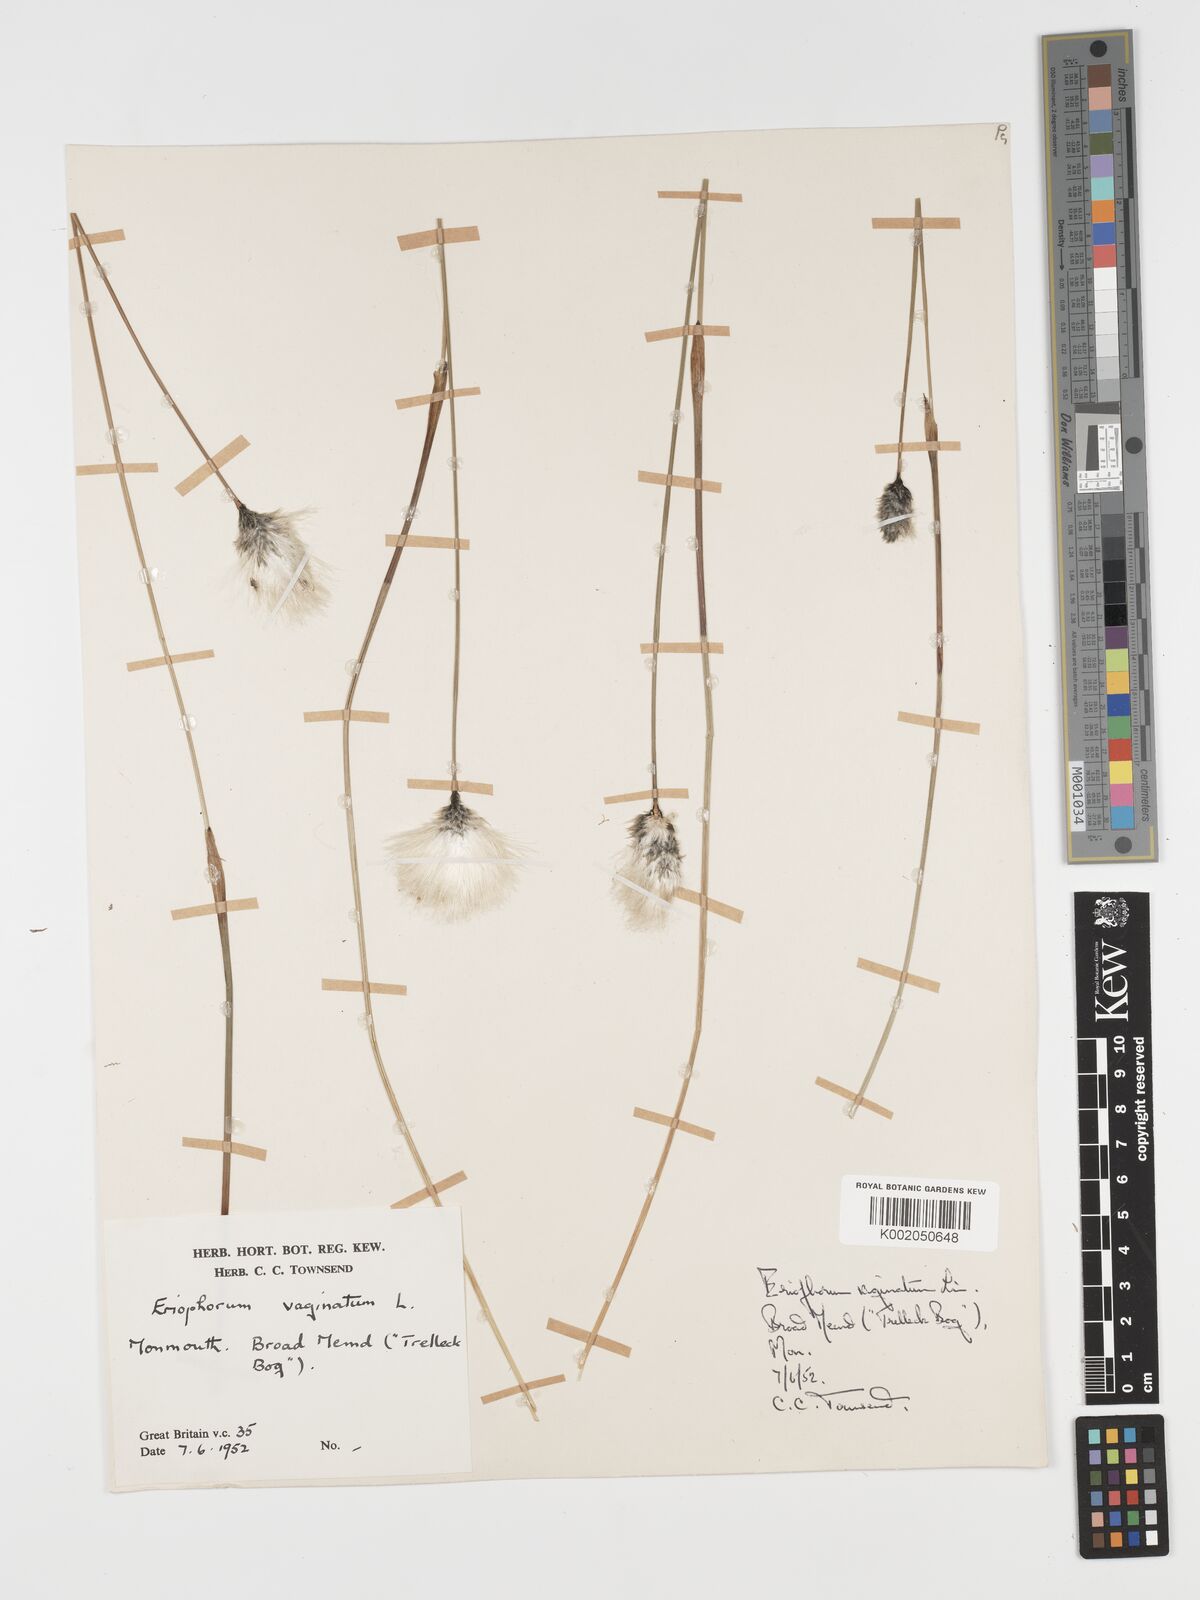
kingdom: Plantae
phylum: Tracheophyta
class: Liliopsida
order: Poales
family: Cyperaceae
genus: Eriophorum
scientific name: Eriophorum vaginatum
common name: Hare's-tail cottongrass
